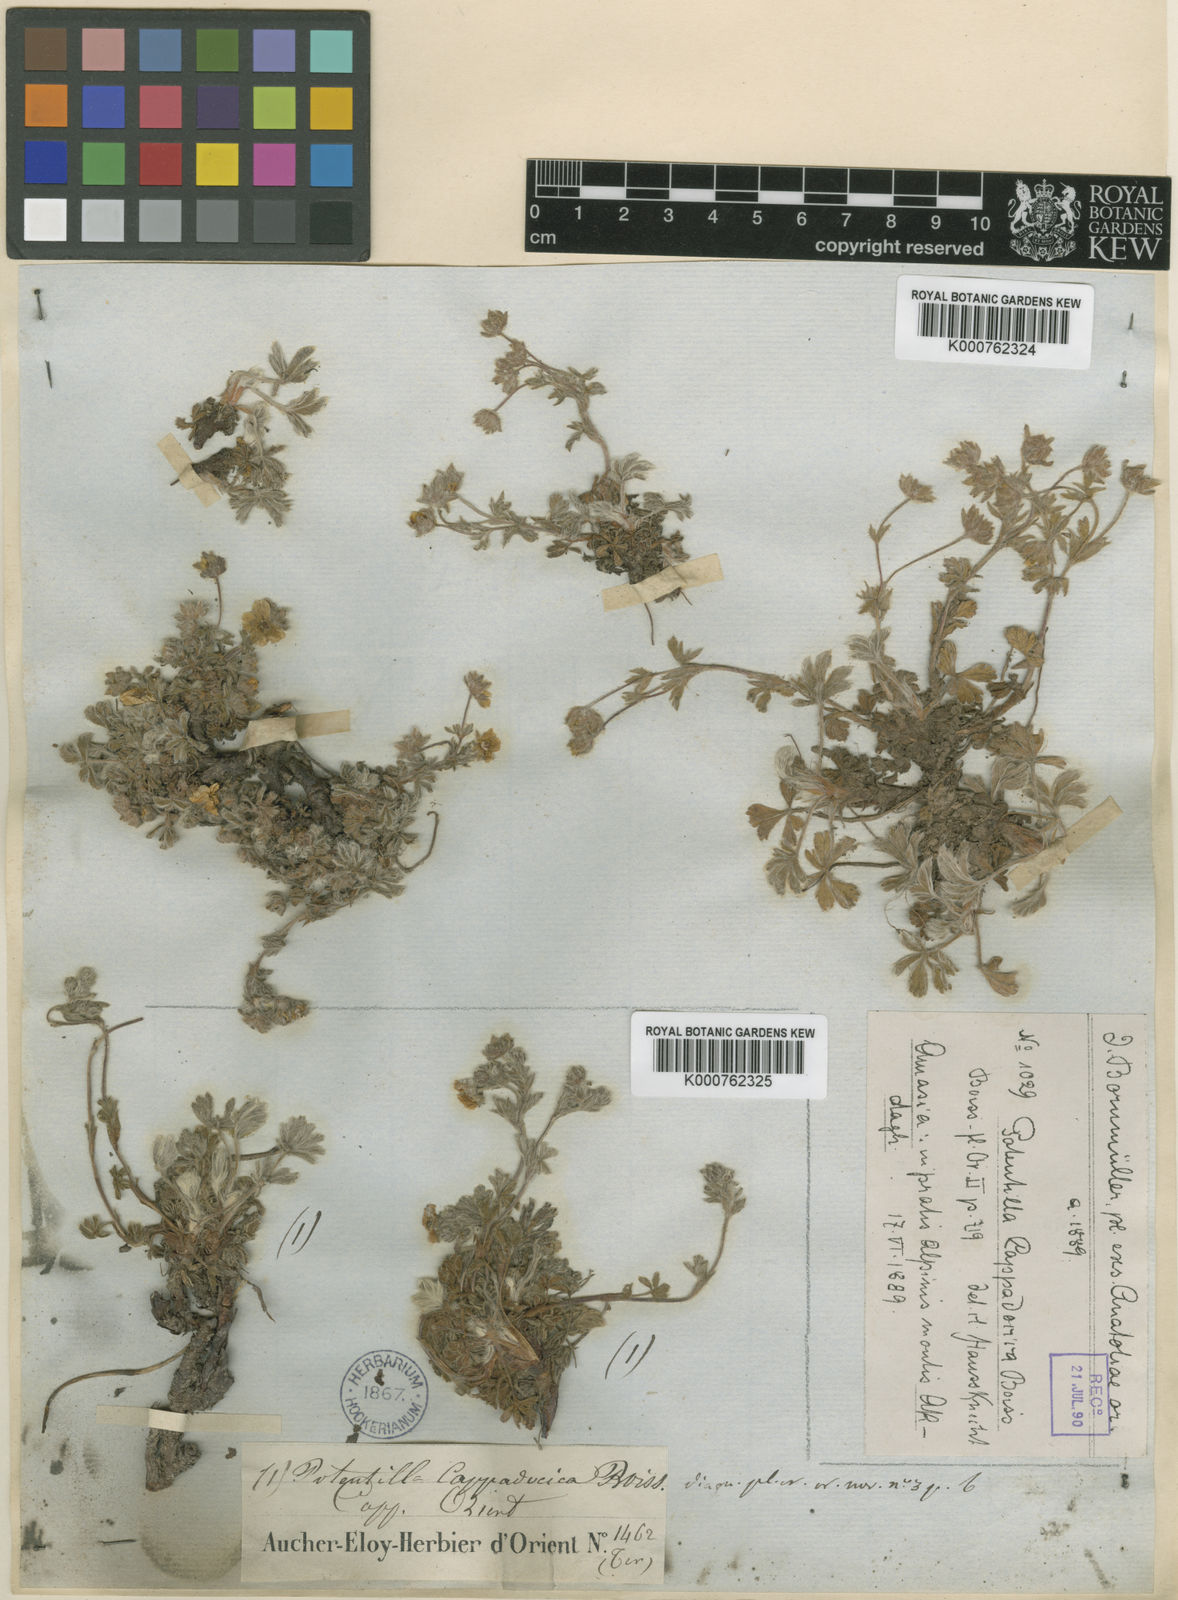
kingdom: Plantae
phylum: Tracheophyta
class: Magnoliopsida
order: Rosales
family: Rosaceae
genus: Potentilla
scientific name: Potentilla cappadocica
